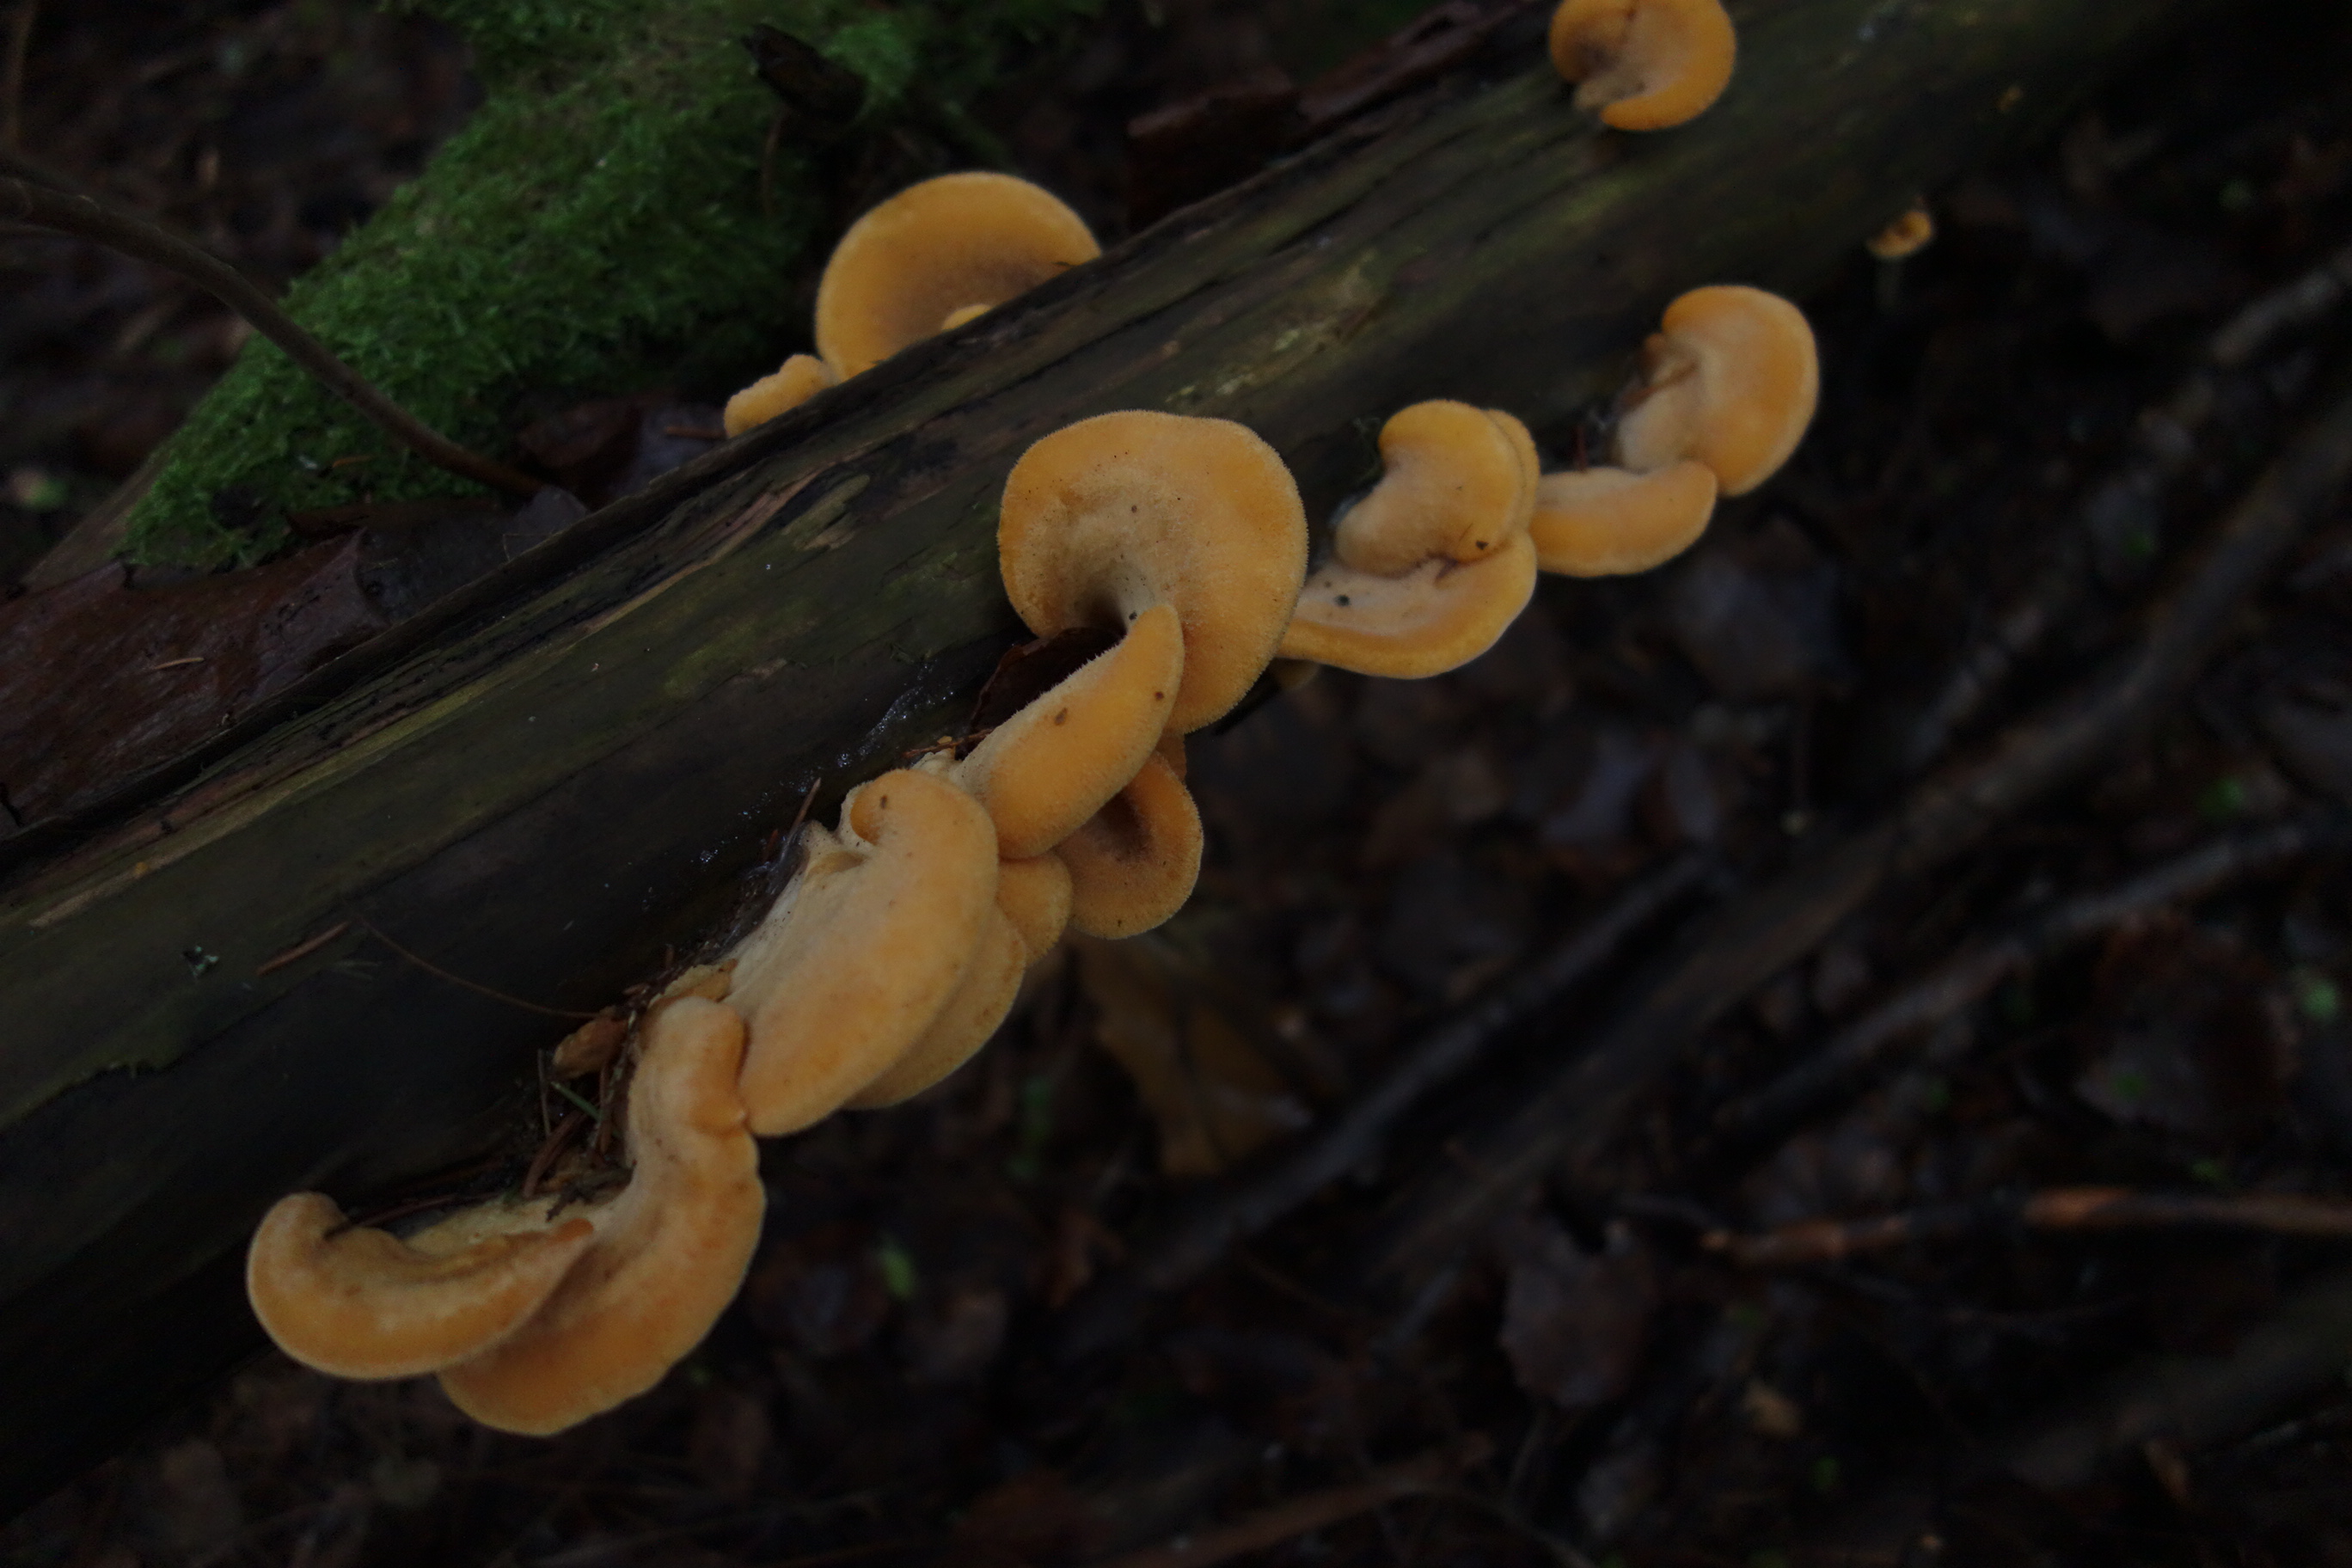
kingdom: Fungi
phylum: Basidiomycota
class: Agaricomycetes
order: Agaricales
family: Phyllotopsidaceae
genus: Phyllotopsis
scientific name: Phyllotopsis nidulans
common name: Orange mock oyster
